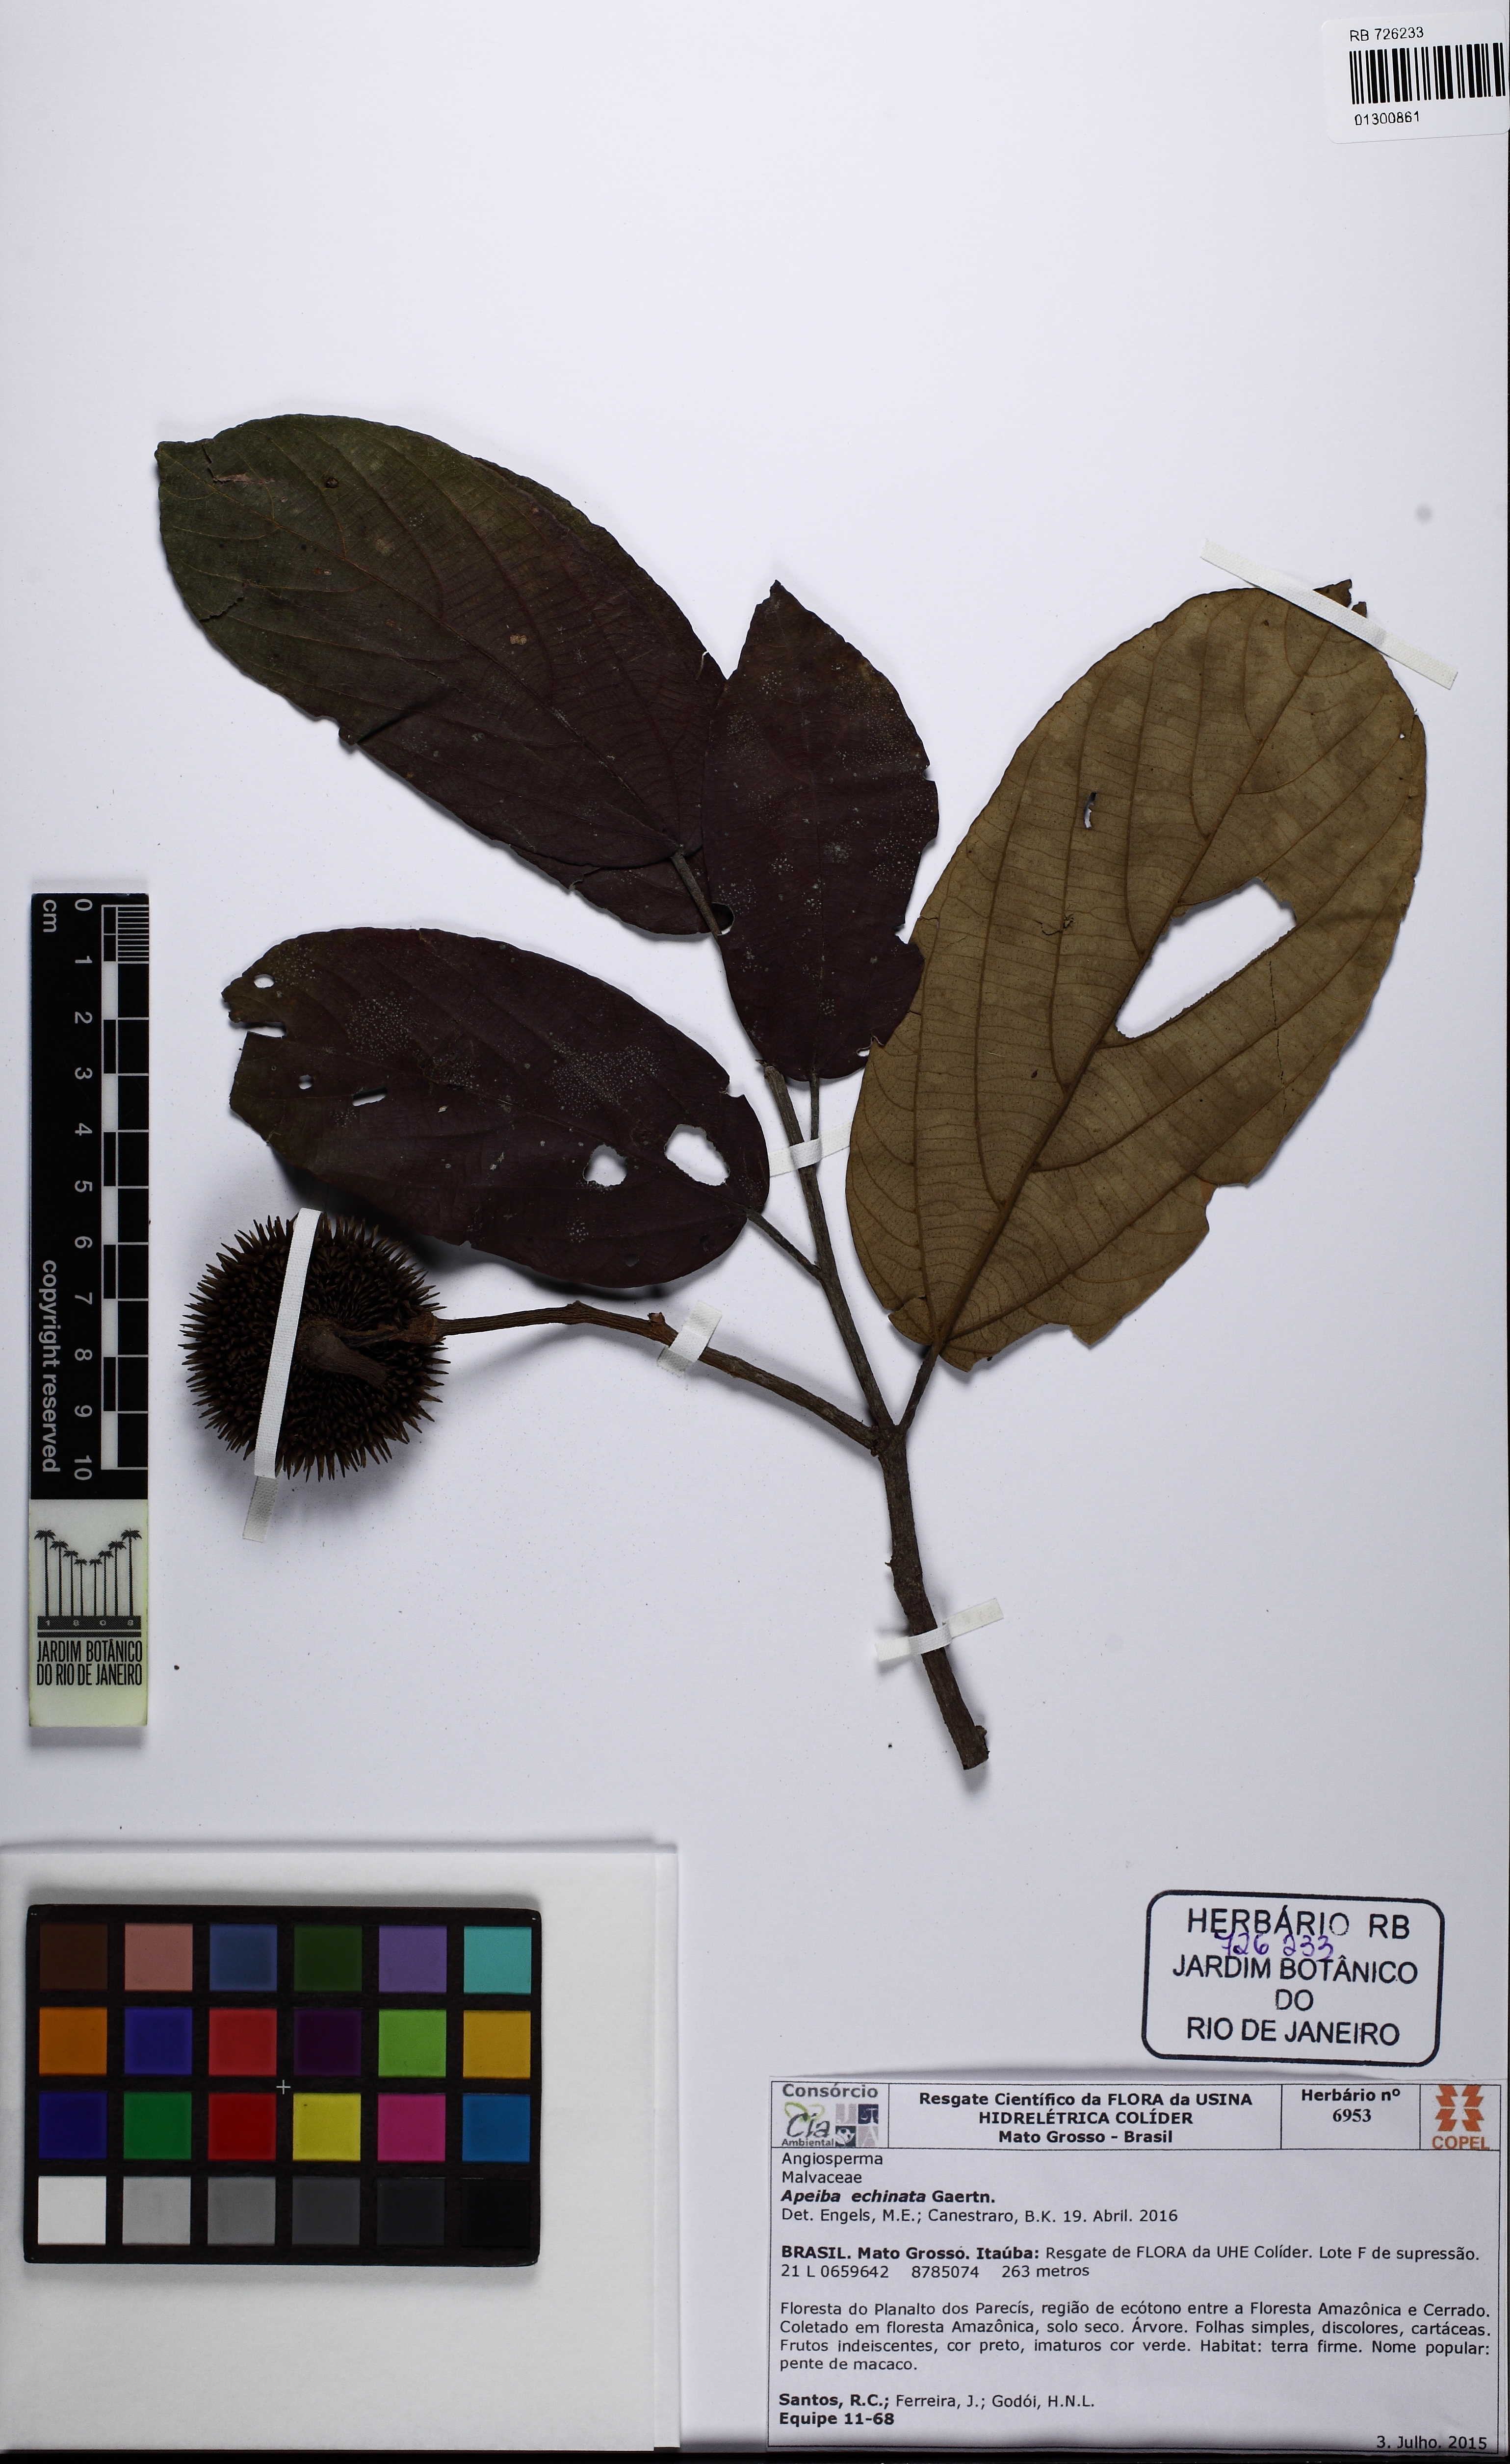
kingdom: Plantae
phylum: Tracheophyta
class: Magnoliopsida
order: Malvales
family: Malvaceae
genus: Apeiba
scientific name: Apeiba petoumo
